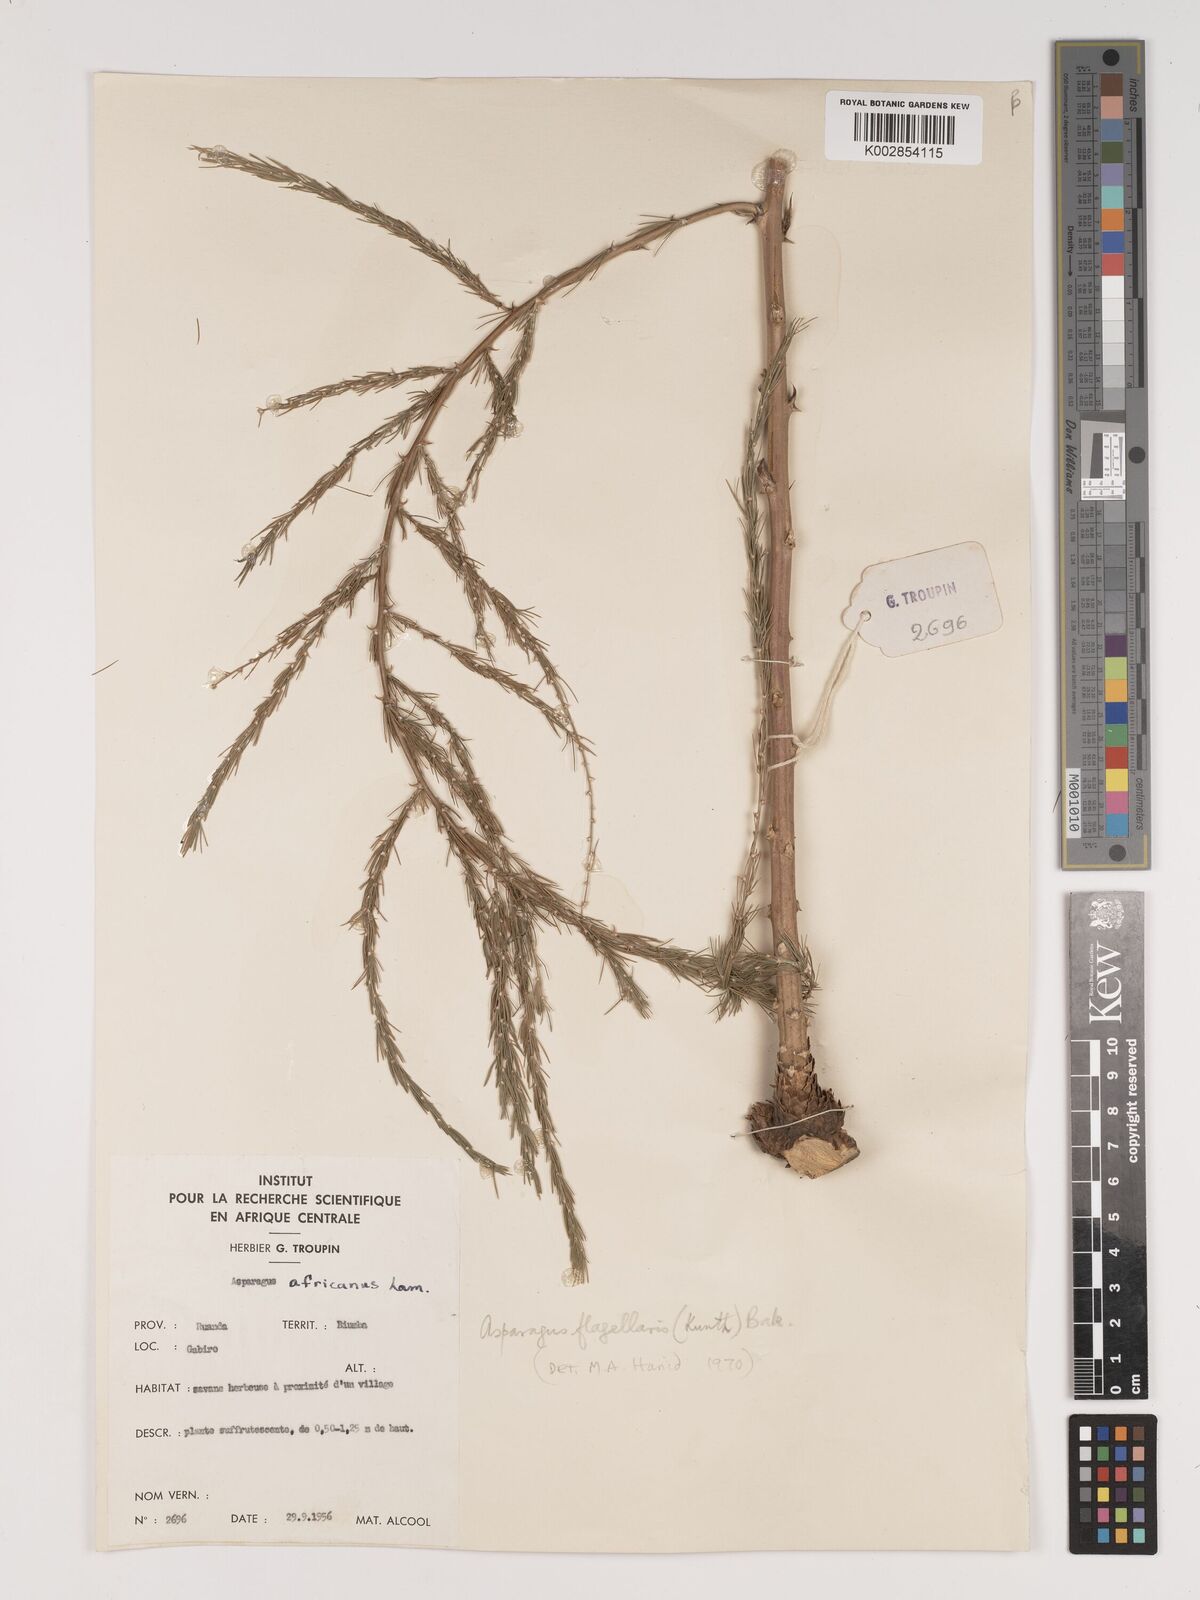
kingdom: Plantae
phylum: Tracheophyta
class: Liliopsida
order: Asparagales
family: Asparagaceae
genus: Asparagus
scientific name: Asparagus flagellaris
